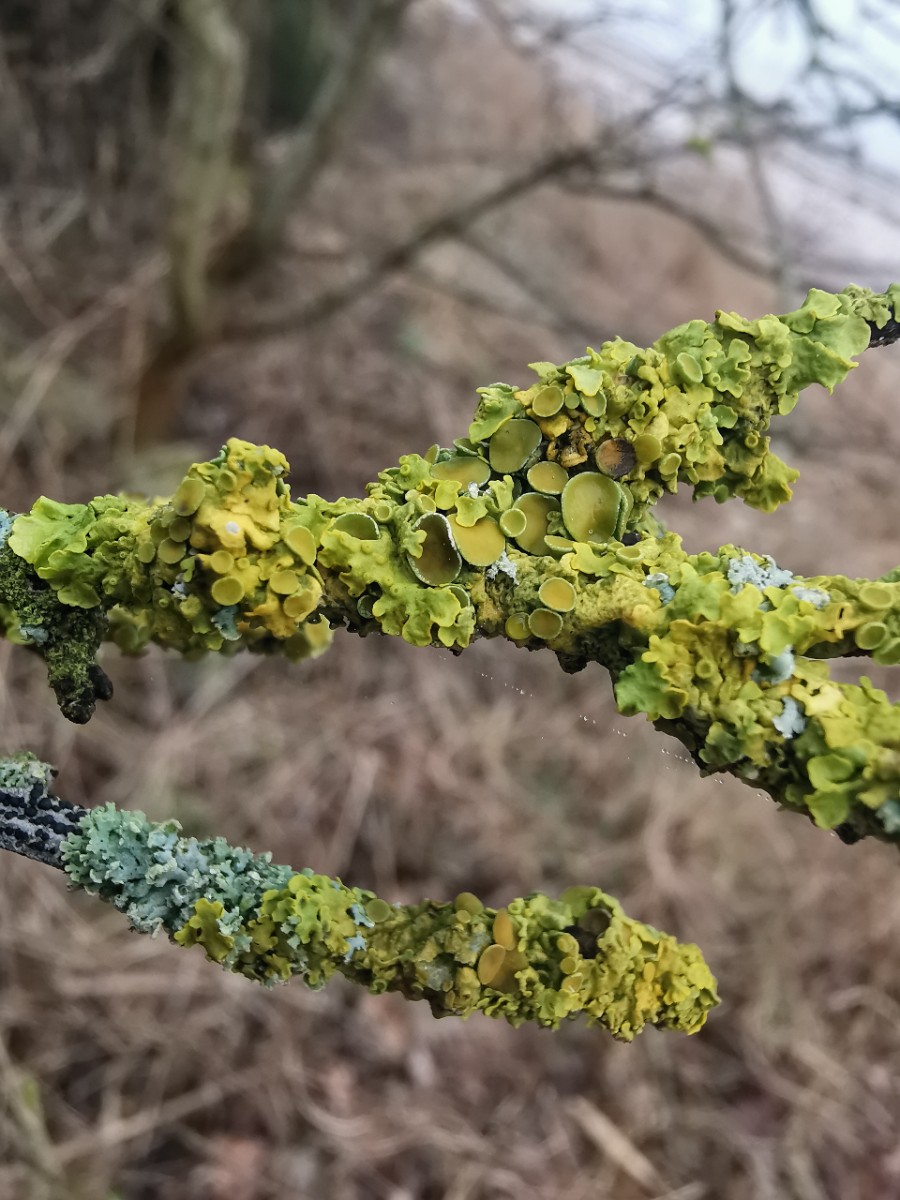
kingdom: Fungi
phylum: Ascomycota
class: Lecanoromycetes
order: Teloschistales
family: Teloschistaceae
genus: Xanthoria
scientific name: Xanthoria parietina
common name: almindelig væggelav
